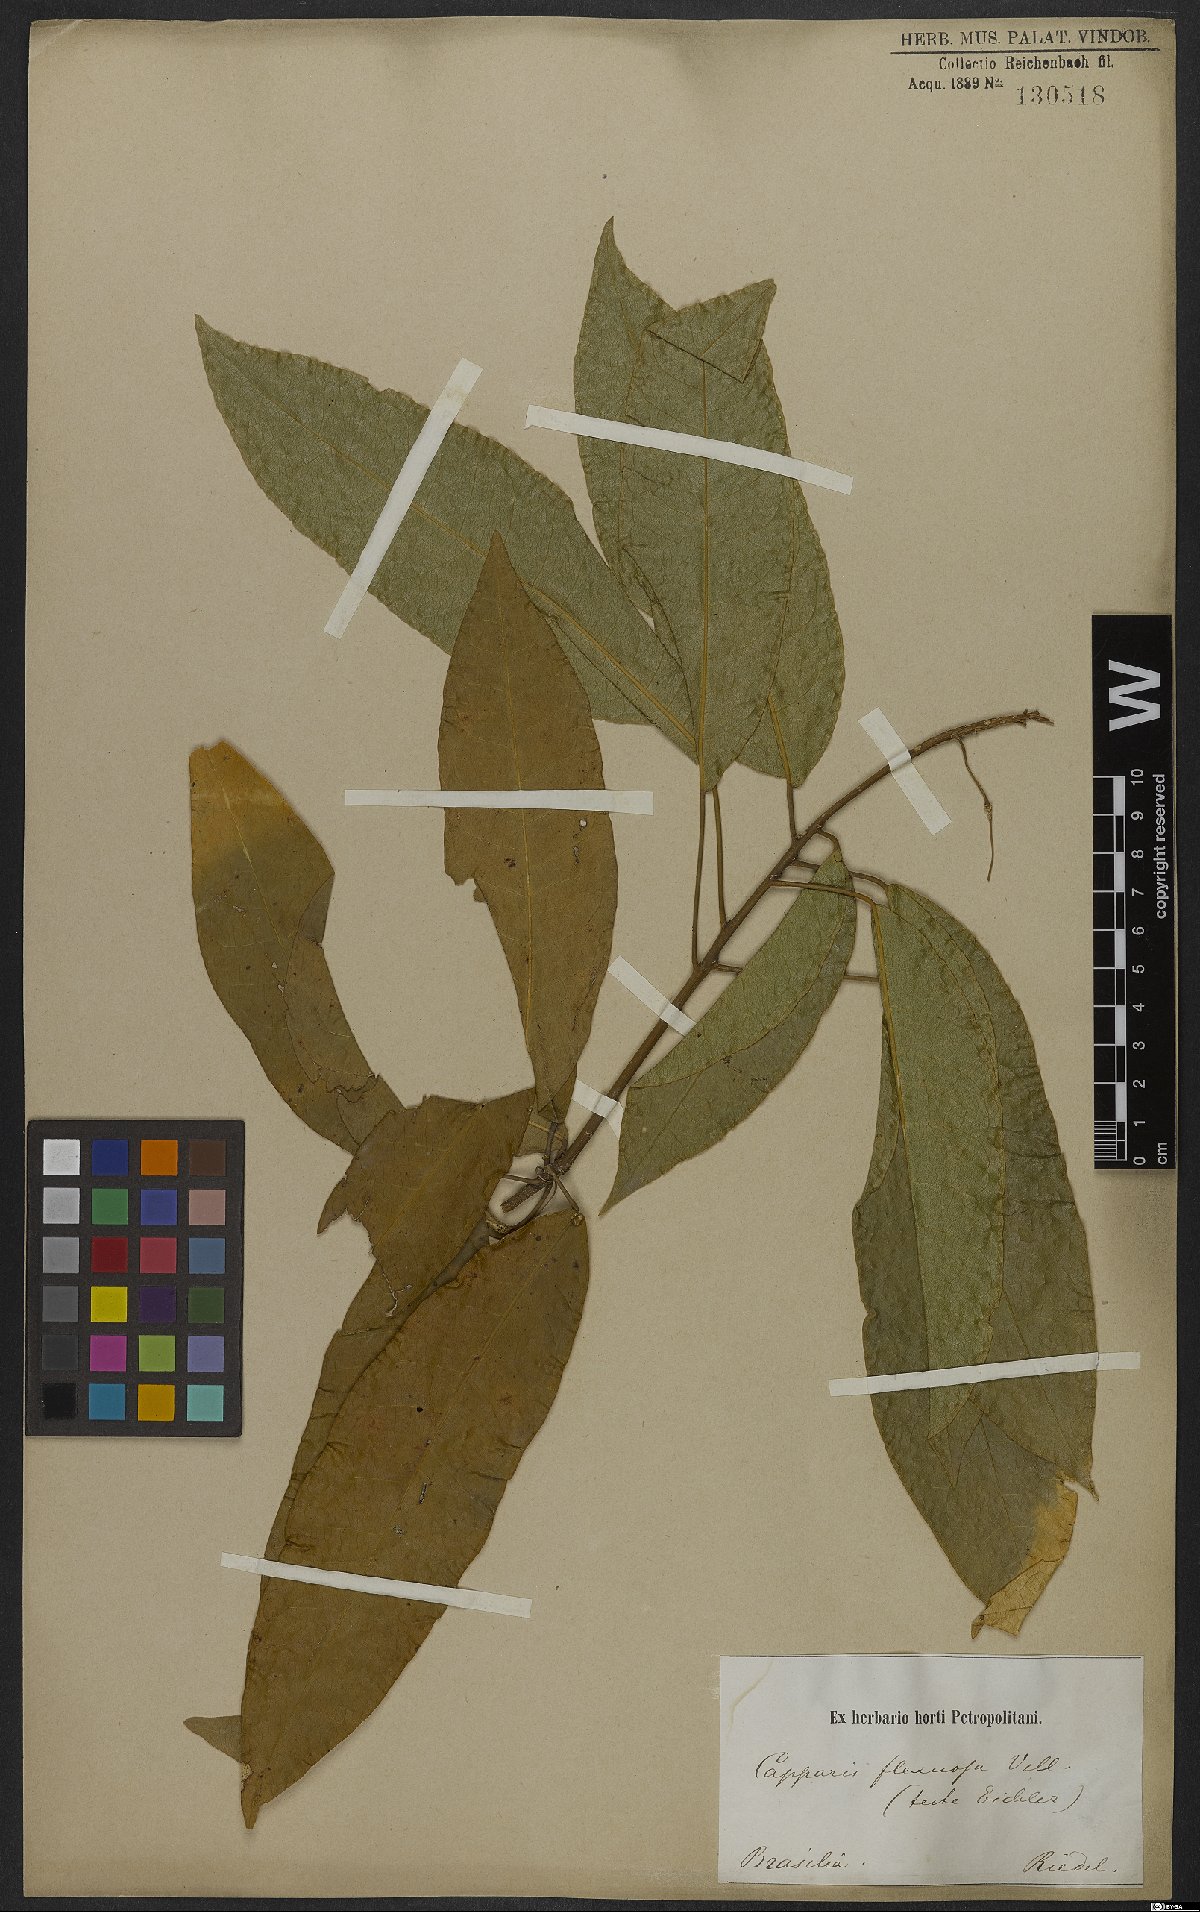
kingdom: Plantae
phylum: Tracheophyta
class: Magnoliopsida
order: Brassicales
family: Capparaceae
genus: Cynophalla
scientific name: Cynophalla flexuosa
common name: Capertree
